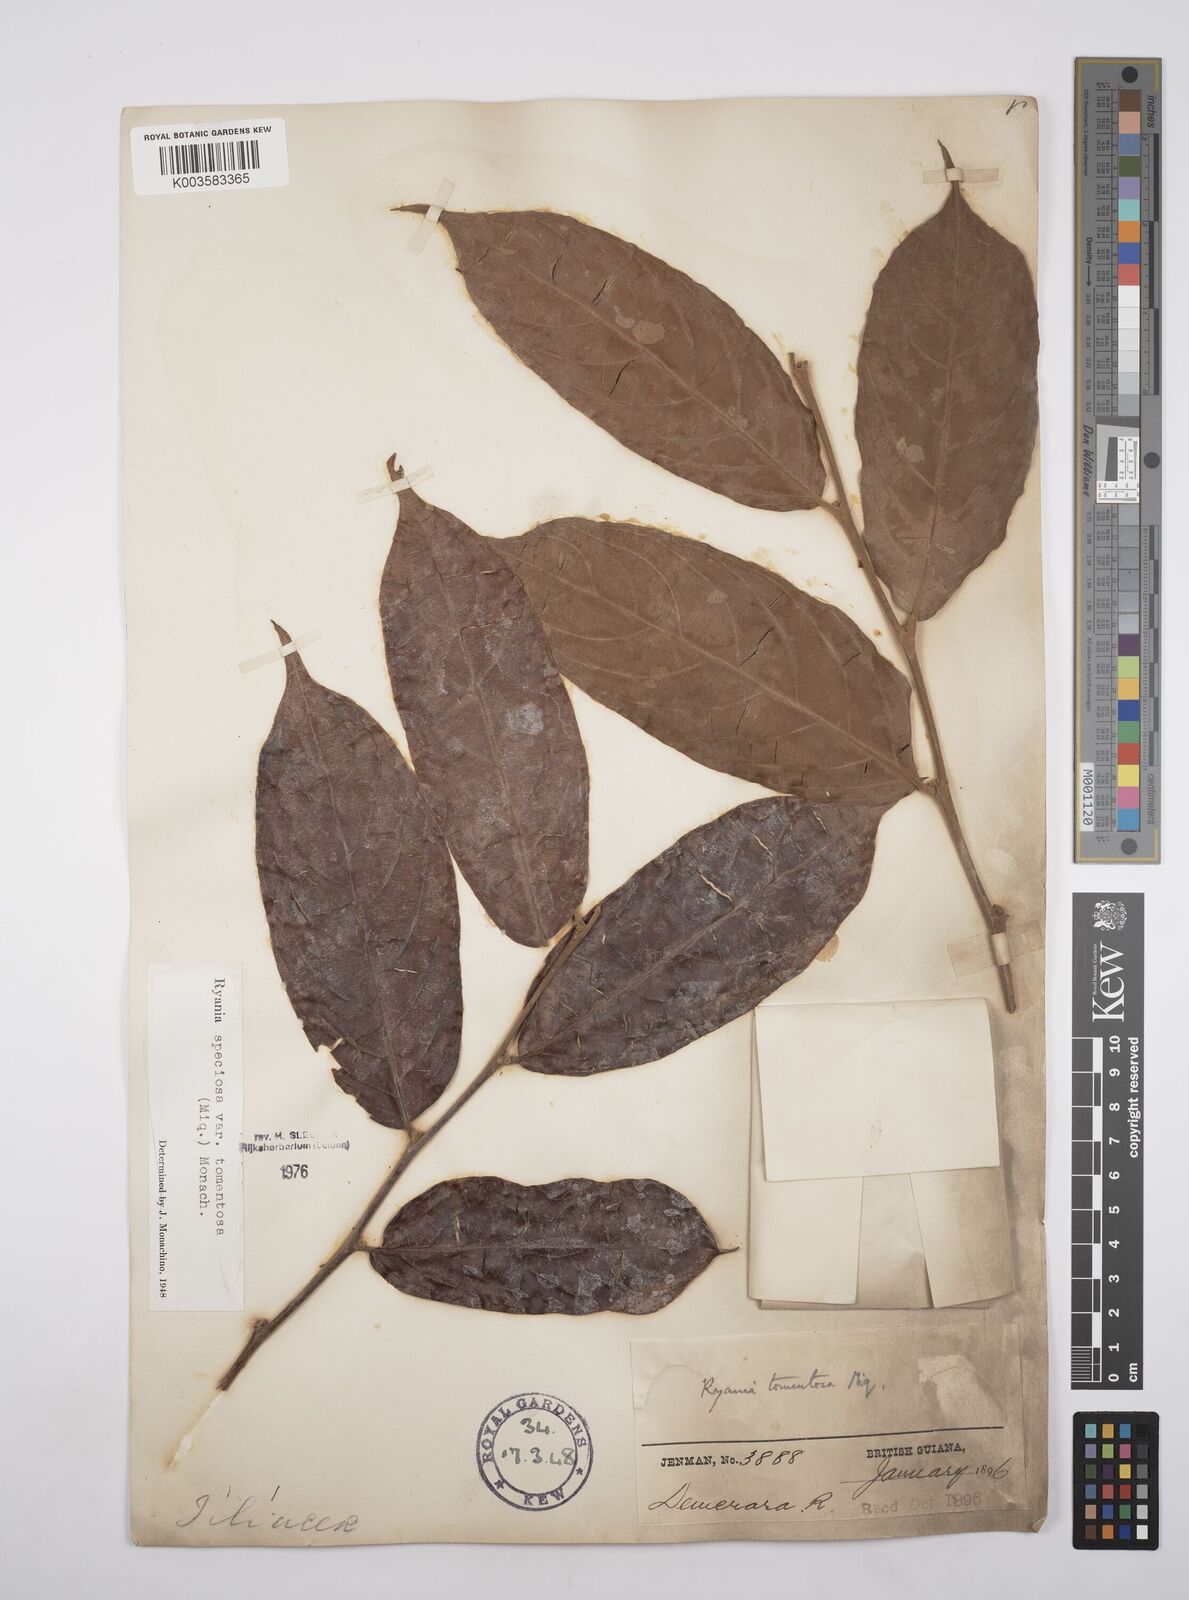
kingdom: Plantae
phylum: Tracheophyta
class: Magnoliopsida
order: Malpighiales
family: Salicaceae
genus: Ryania
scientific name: Ryania speciosa
